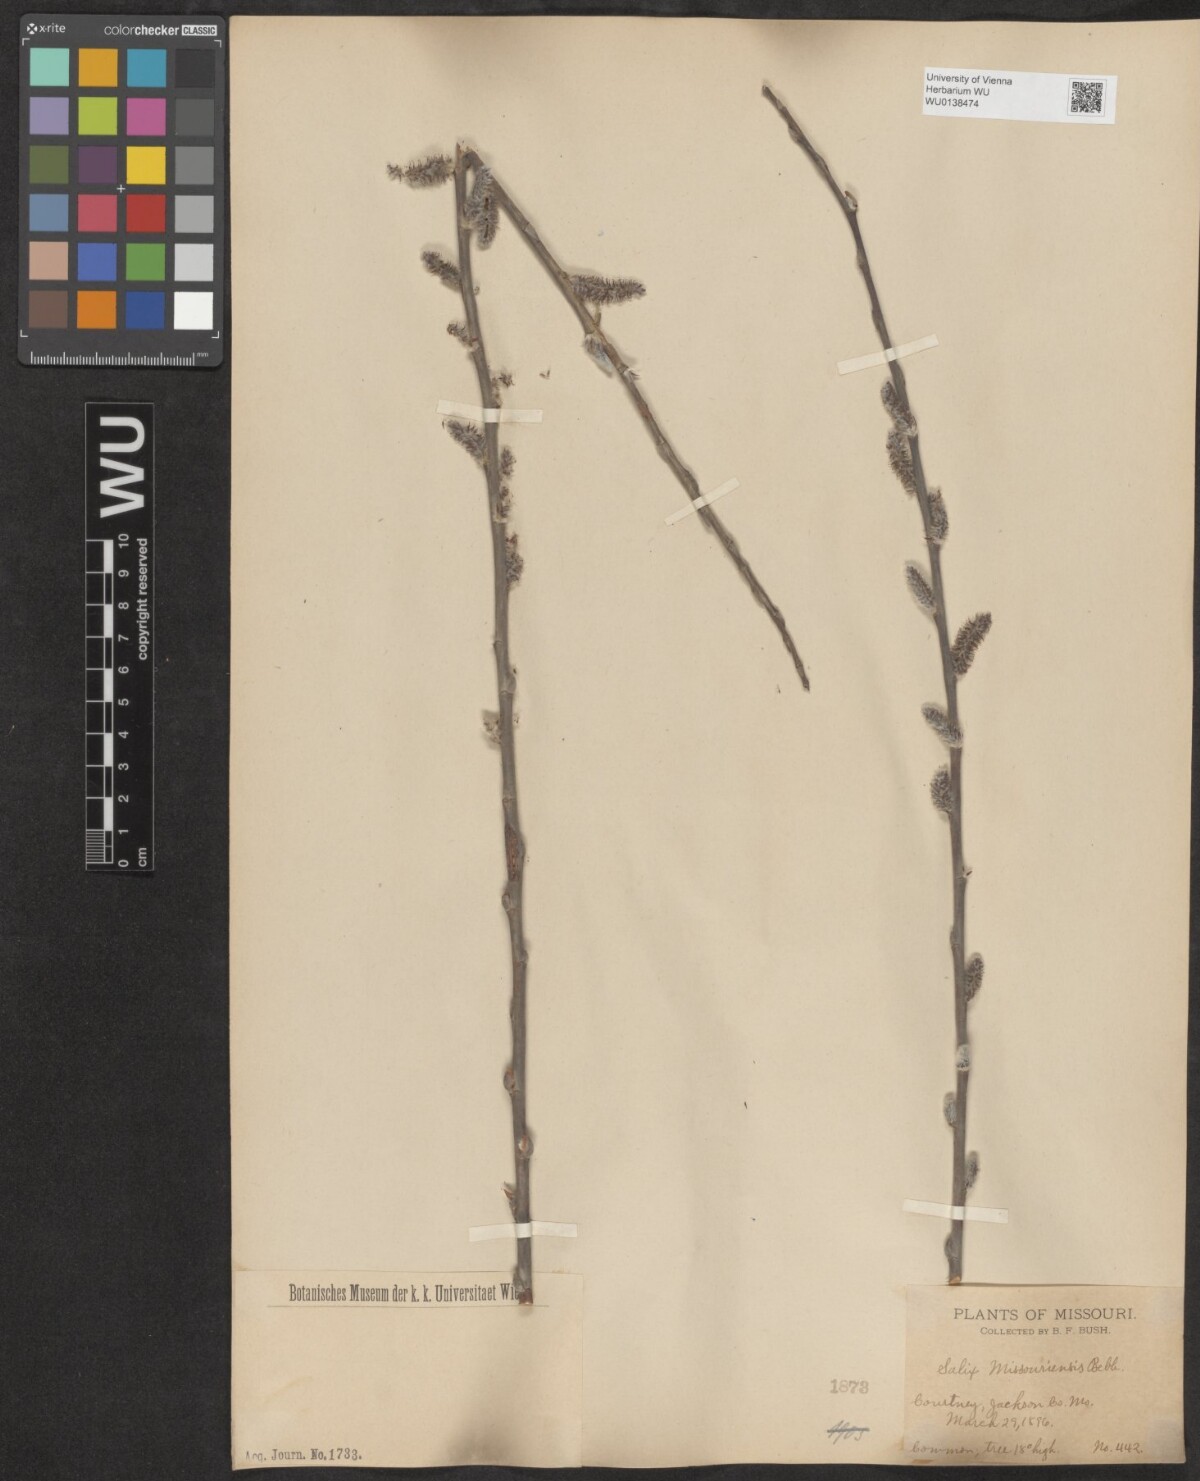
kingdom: Plantae
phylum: Tracheophyta
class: Magnoliopsida
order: Malpighiales
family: Salicaceae
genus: Salix
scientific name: Salix eriocephala
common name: Heart-leaved willow
